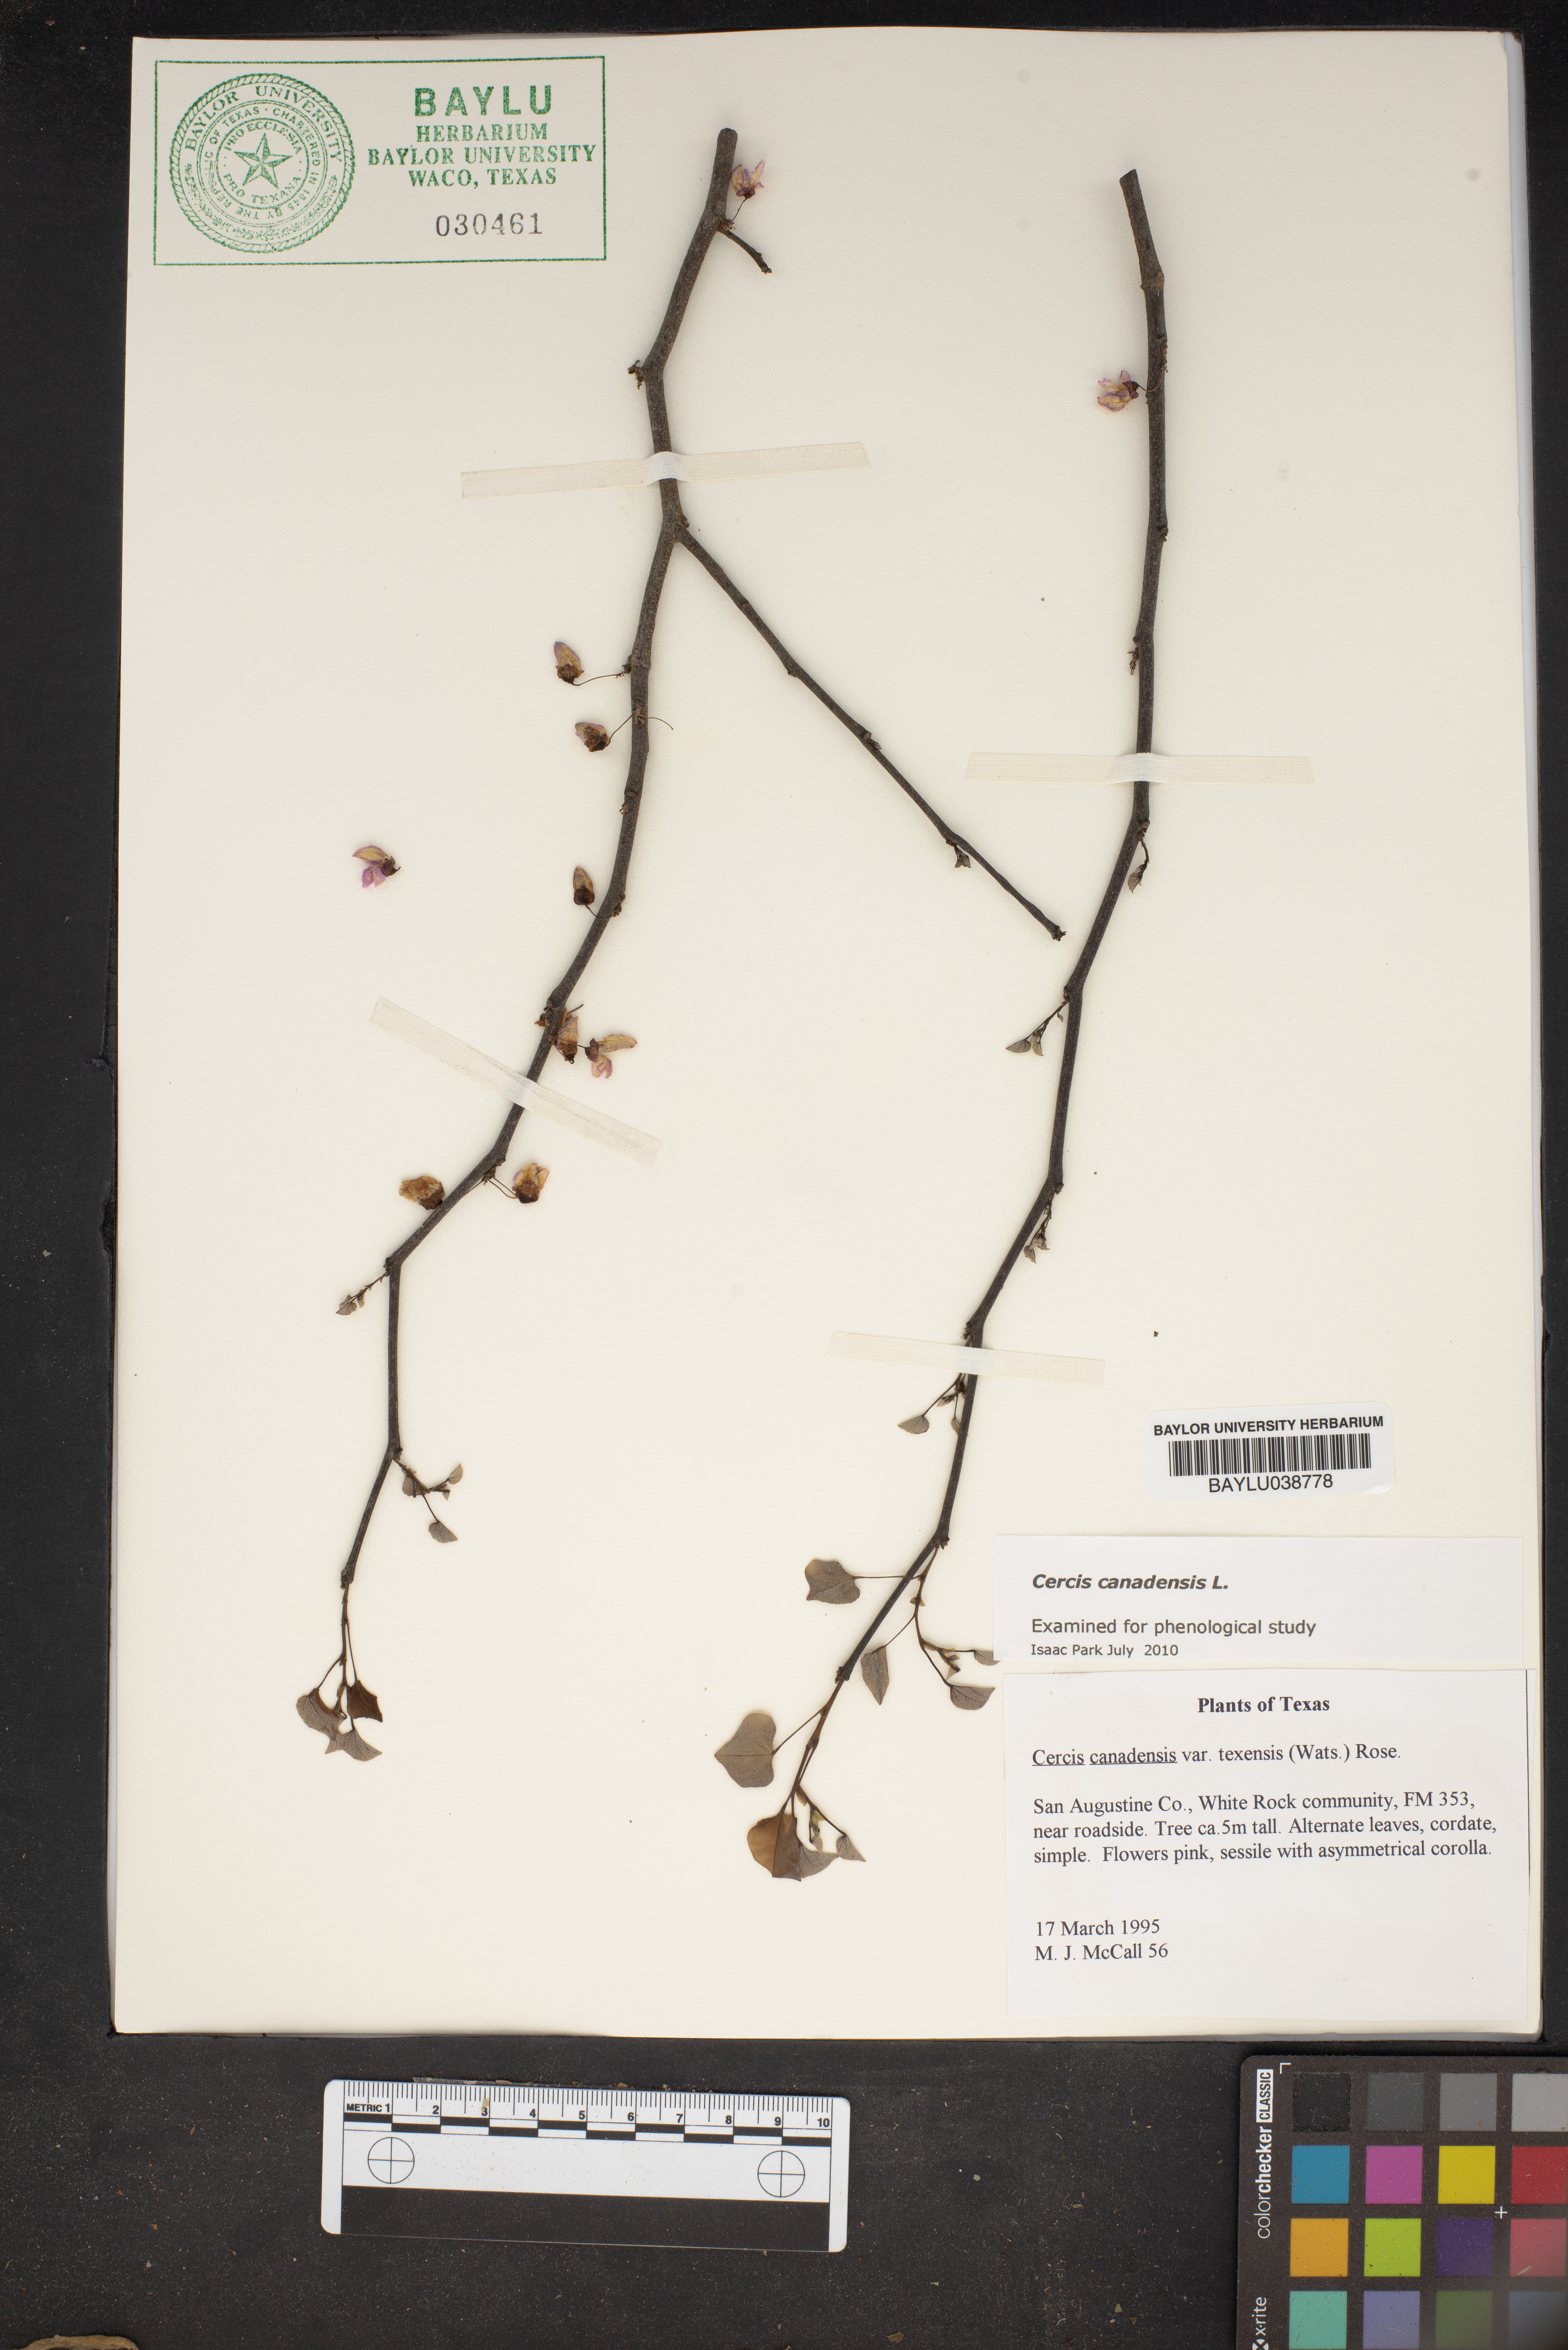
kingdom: Plantae
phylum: Tracheophyta
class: Magnoliopsida
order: Fabales
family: Fabaceae
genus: Cercis
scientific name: Cercis canadensis
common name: Eastern redbud
